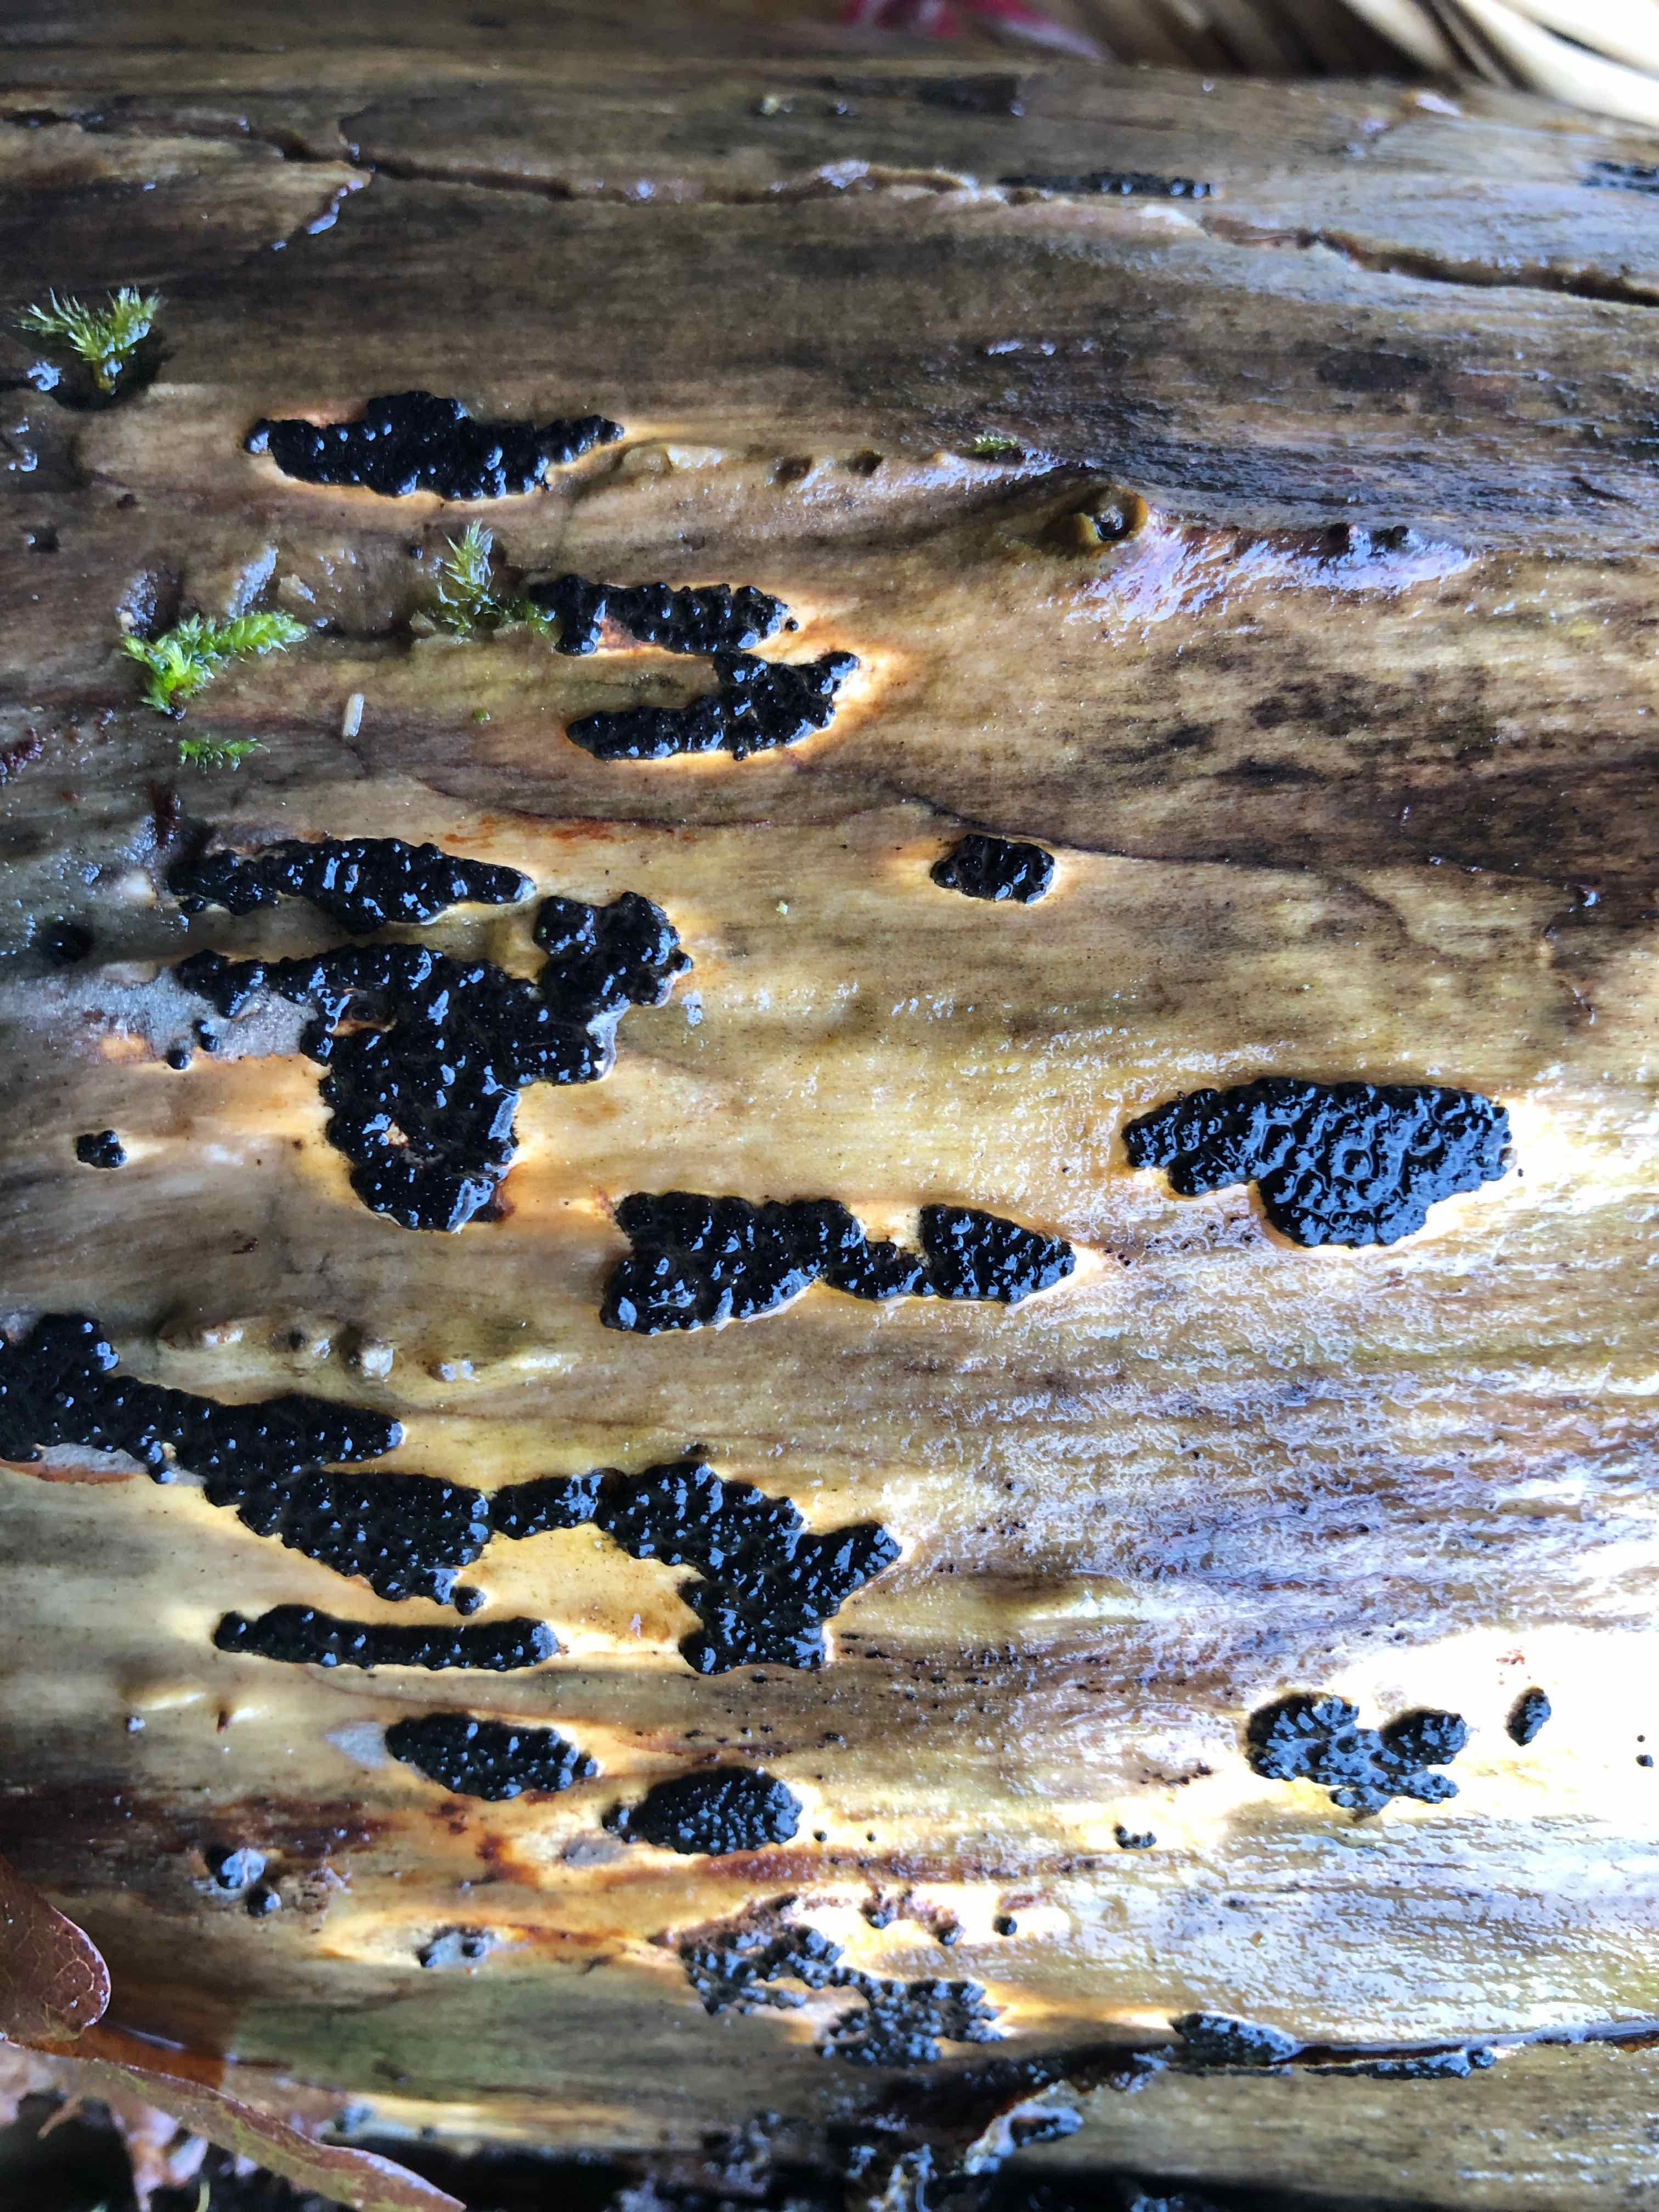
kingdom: Fungi
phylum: Ascomycota
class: Sordariomycetes
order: Xylariales
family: Xylariaceae
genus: Nemania
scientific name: Nemania serpens
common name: almindelig kuldyne
